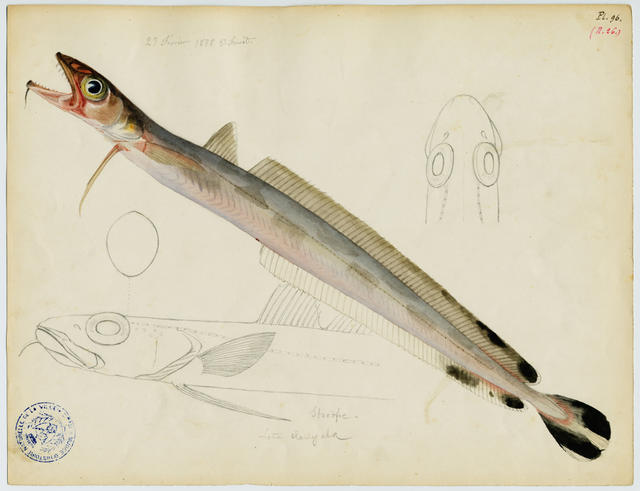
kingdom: Animalia
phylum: Chordata
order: Gadiformes
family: Lotidae
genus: Molva
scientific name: Molva molva
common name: Ling
